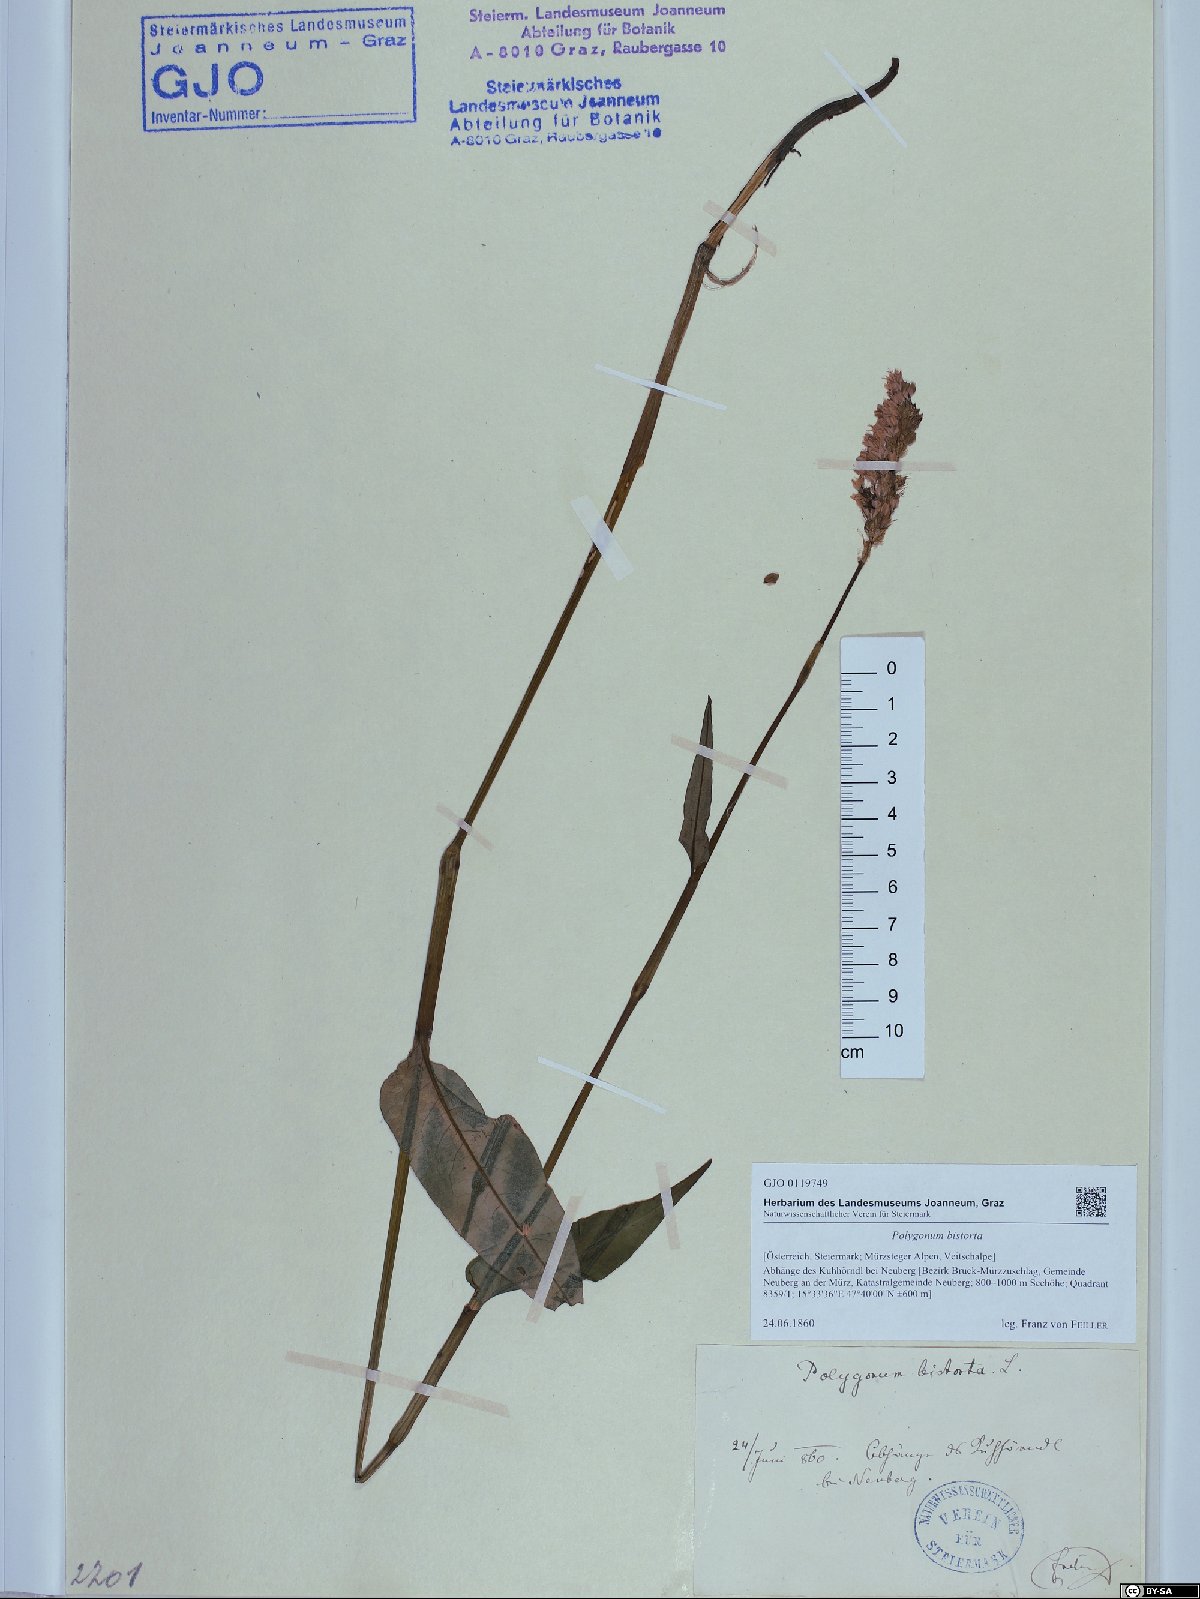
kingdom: Plantae
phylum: Tracheophyta
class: Magnoliopsida
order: Caryophyllales
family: Polygonaceae
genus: Bistorta
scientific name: Bistorta officinalis
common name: Common bistort
